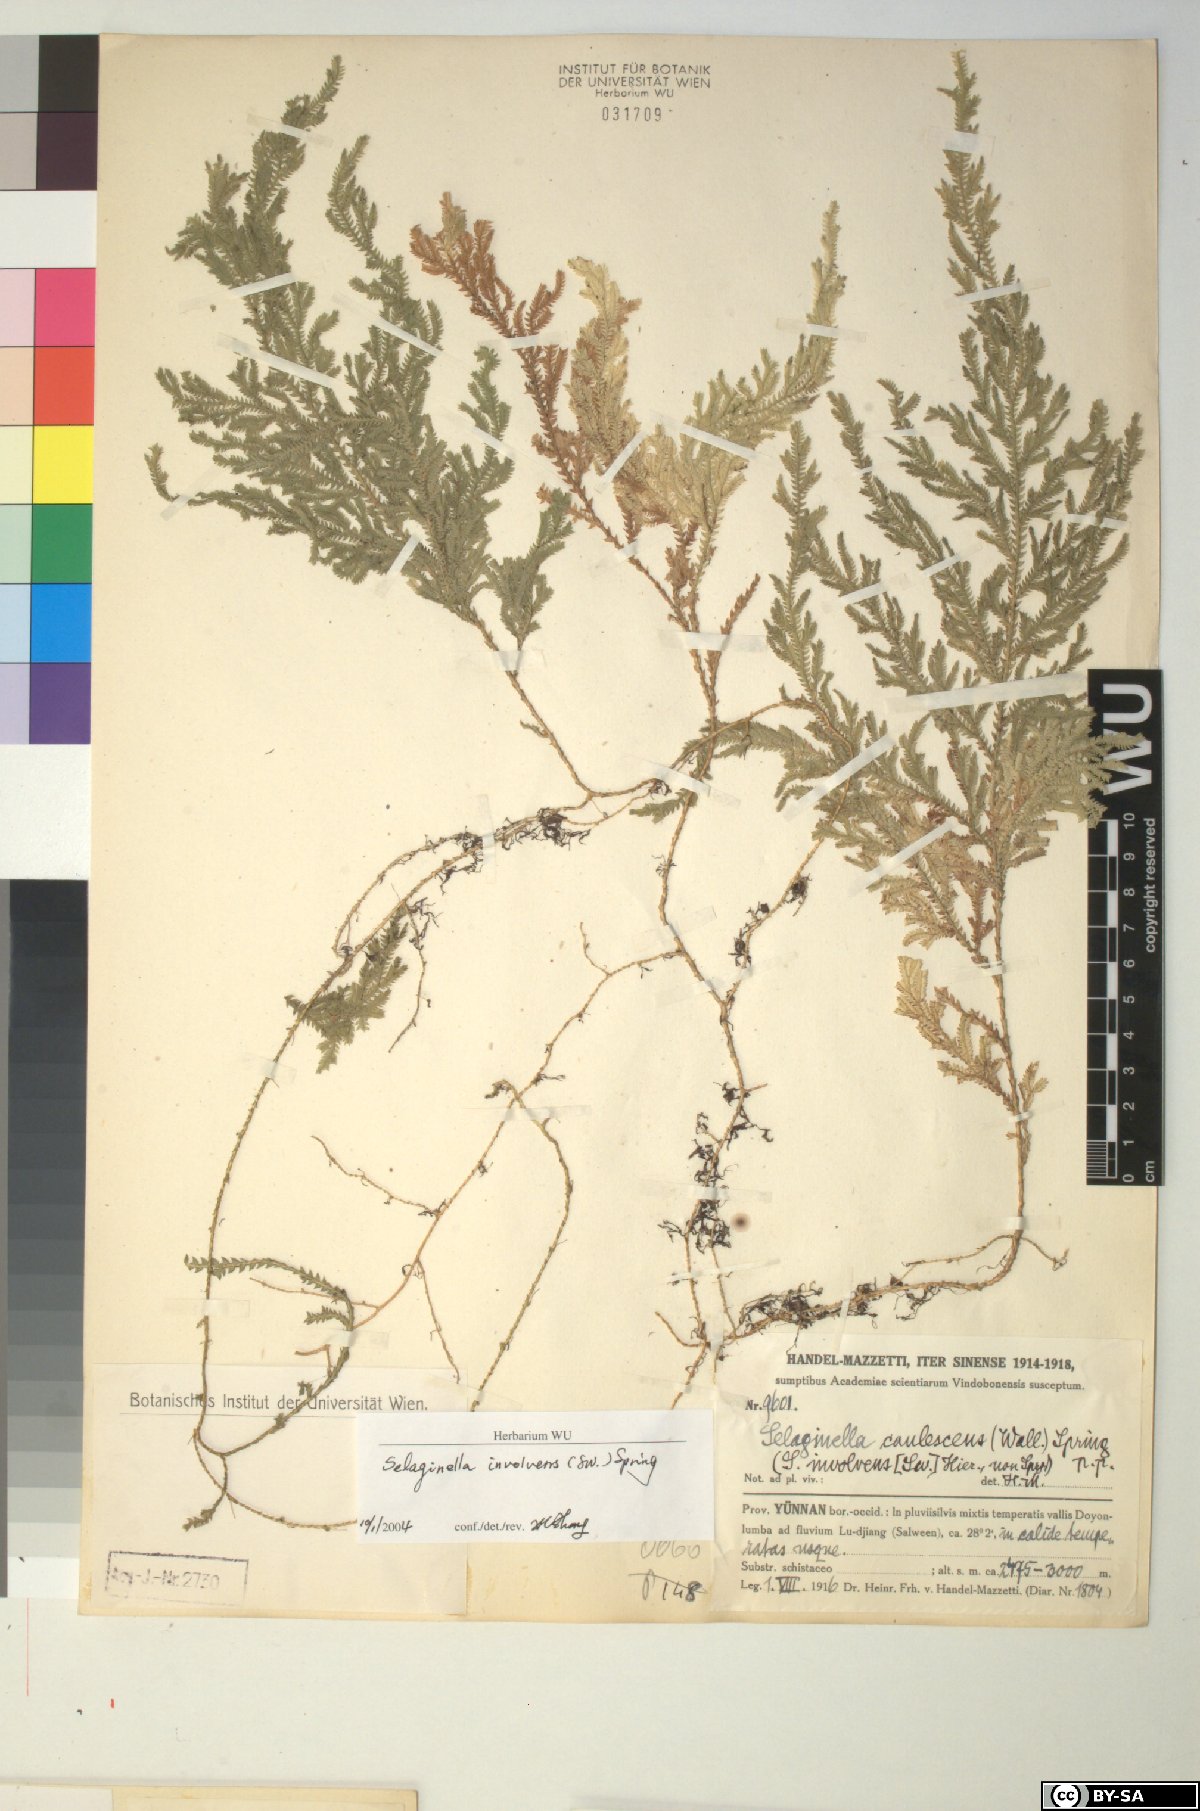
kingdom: Plantae
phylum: Tracheophyta
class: Lycopodiopsida
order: Selaginellales
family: Selaginellaceae
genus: Selaginella
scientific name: Selaginella involvens
